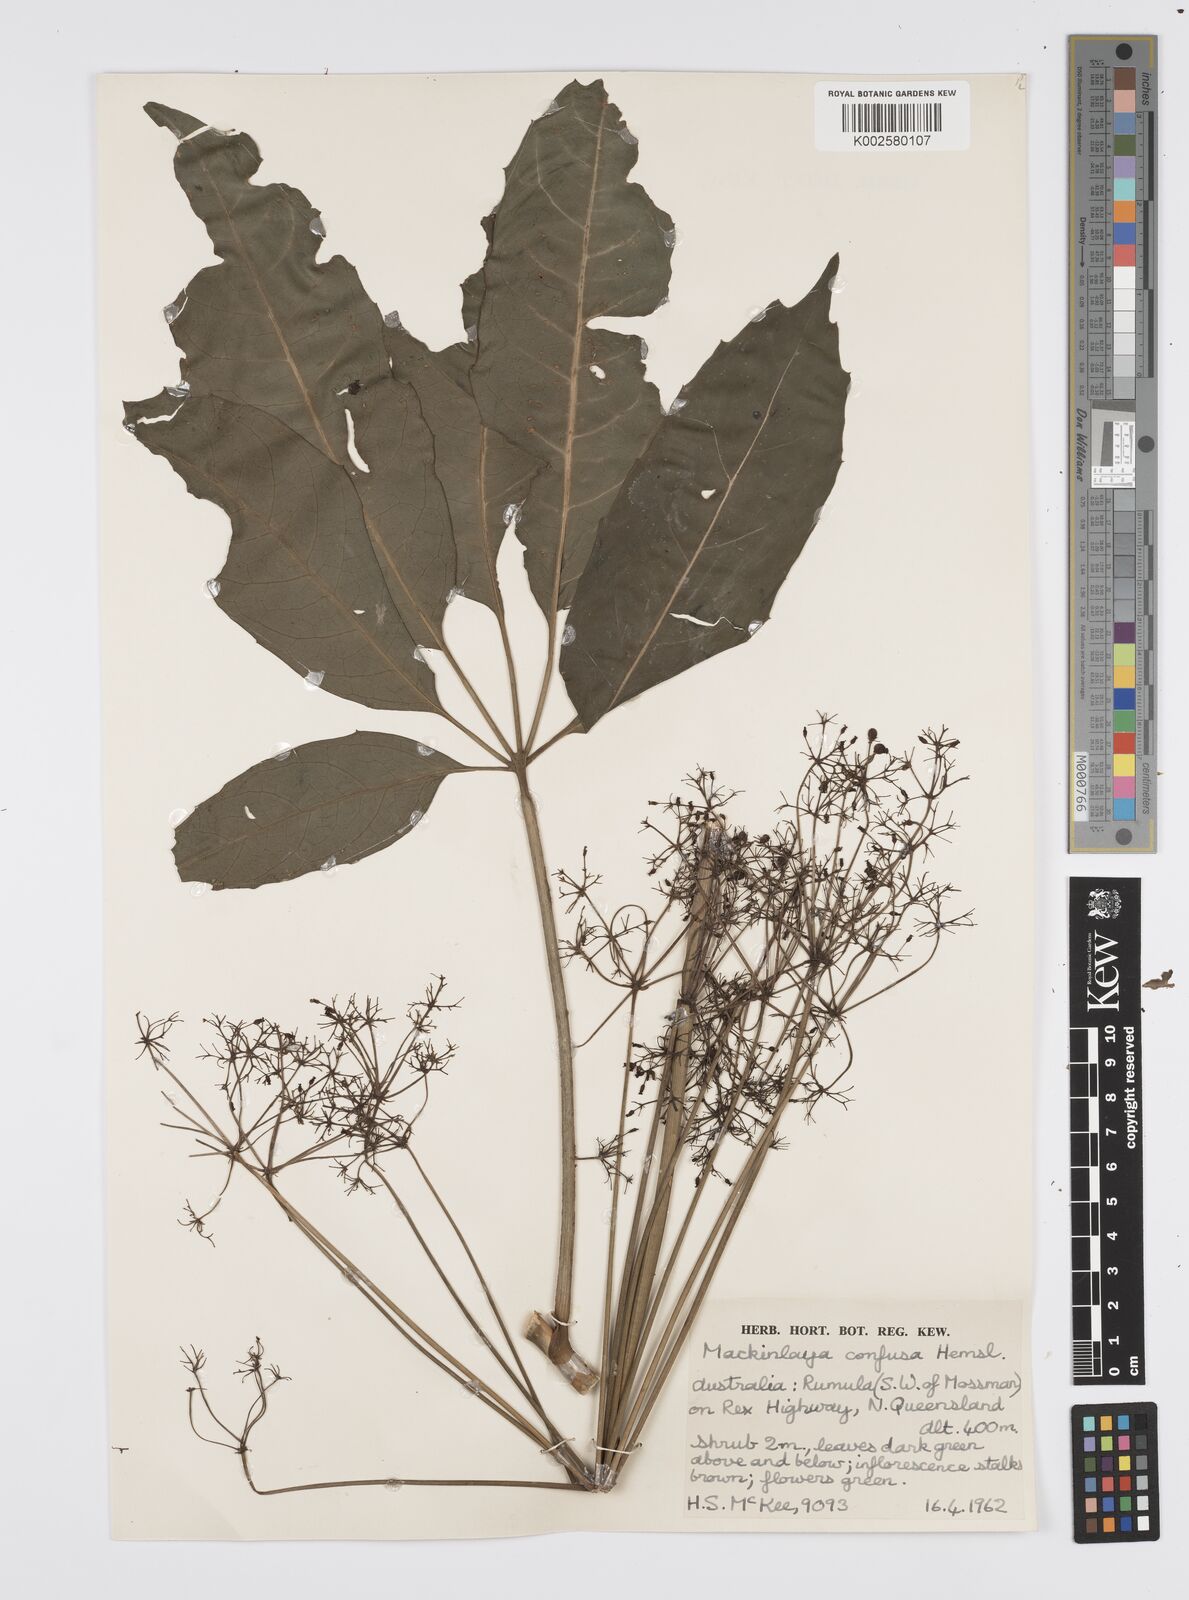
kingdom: Plantae
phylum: Tracheophyta
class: Magnoliopsida
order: Apiales
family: Apiaceae
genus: Mackinlaya
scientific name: Mackinlaya confusa
